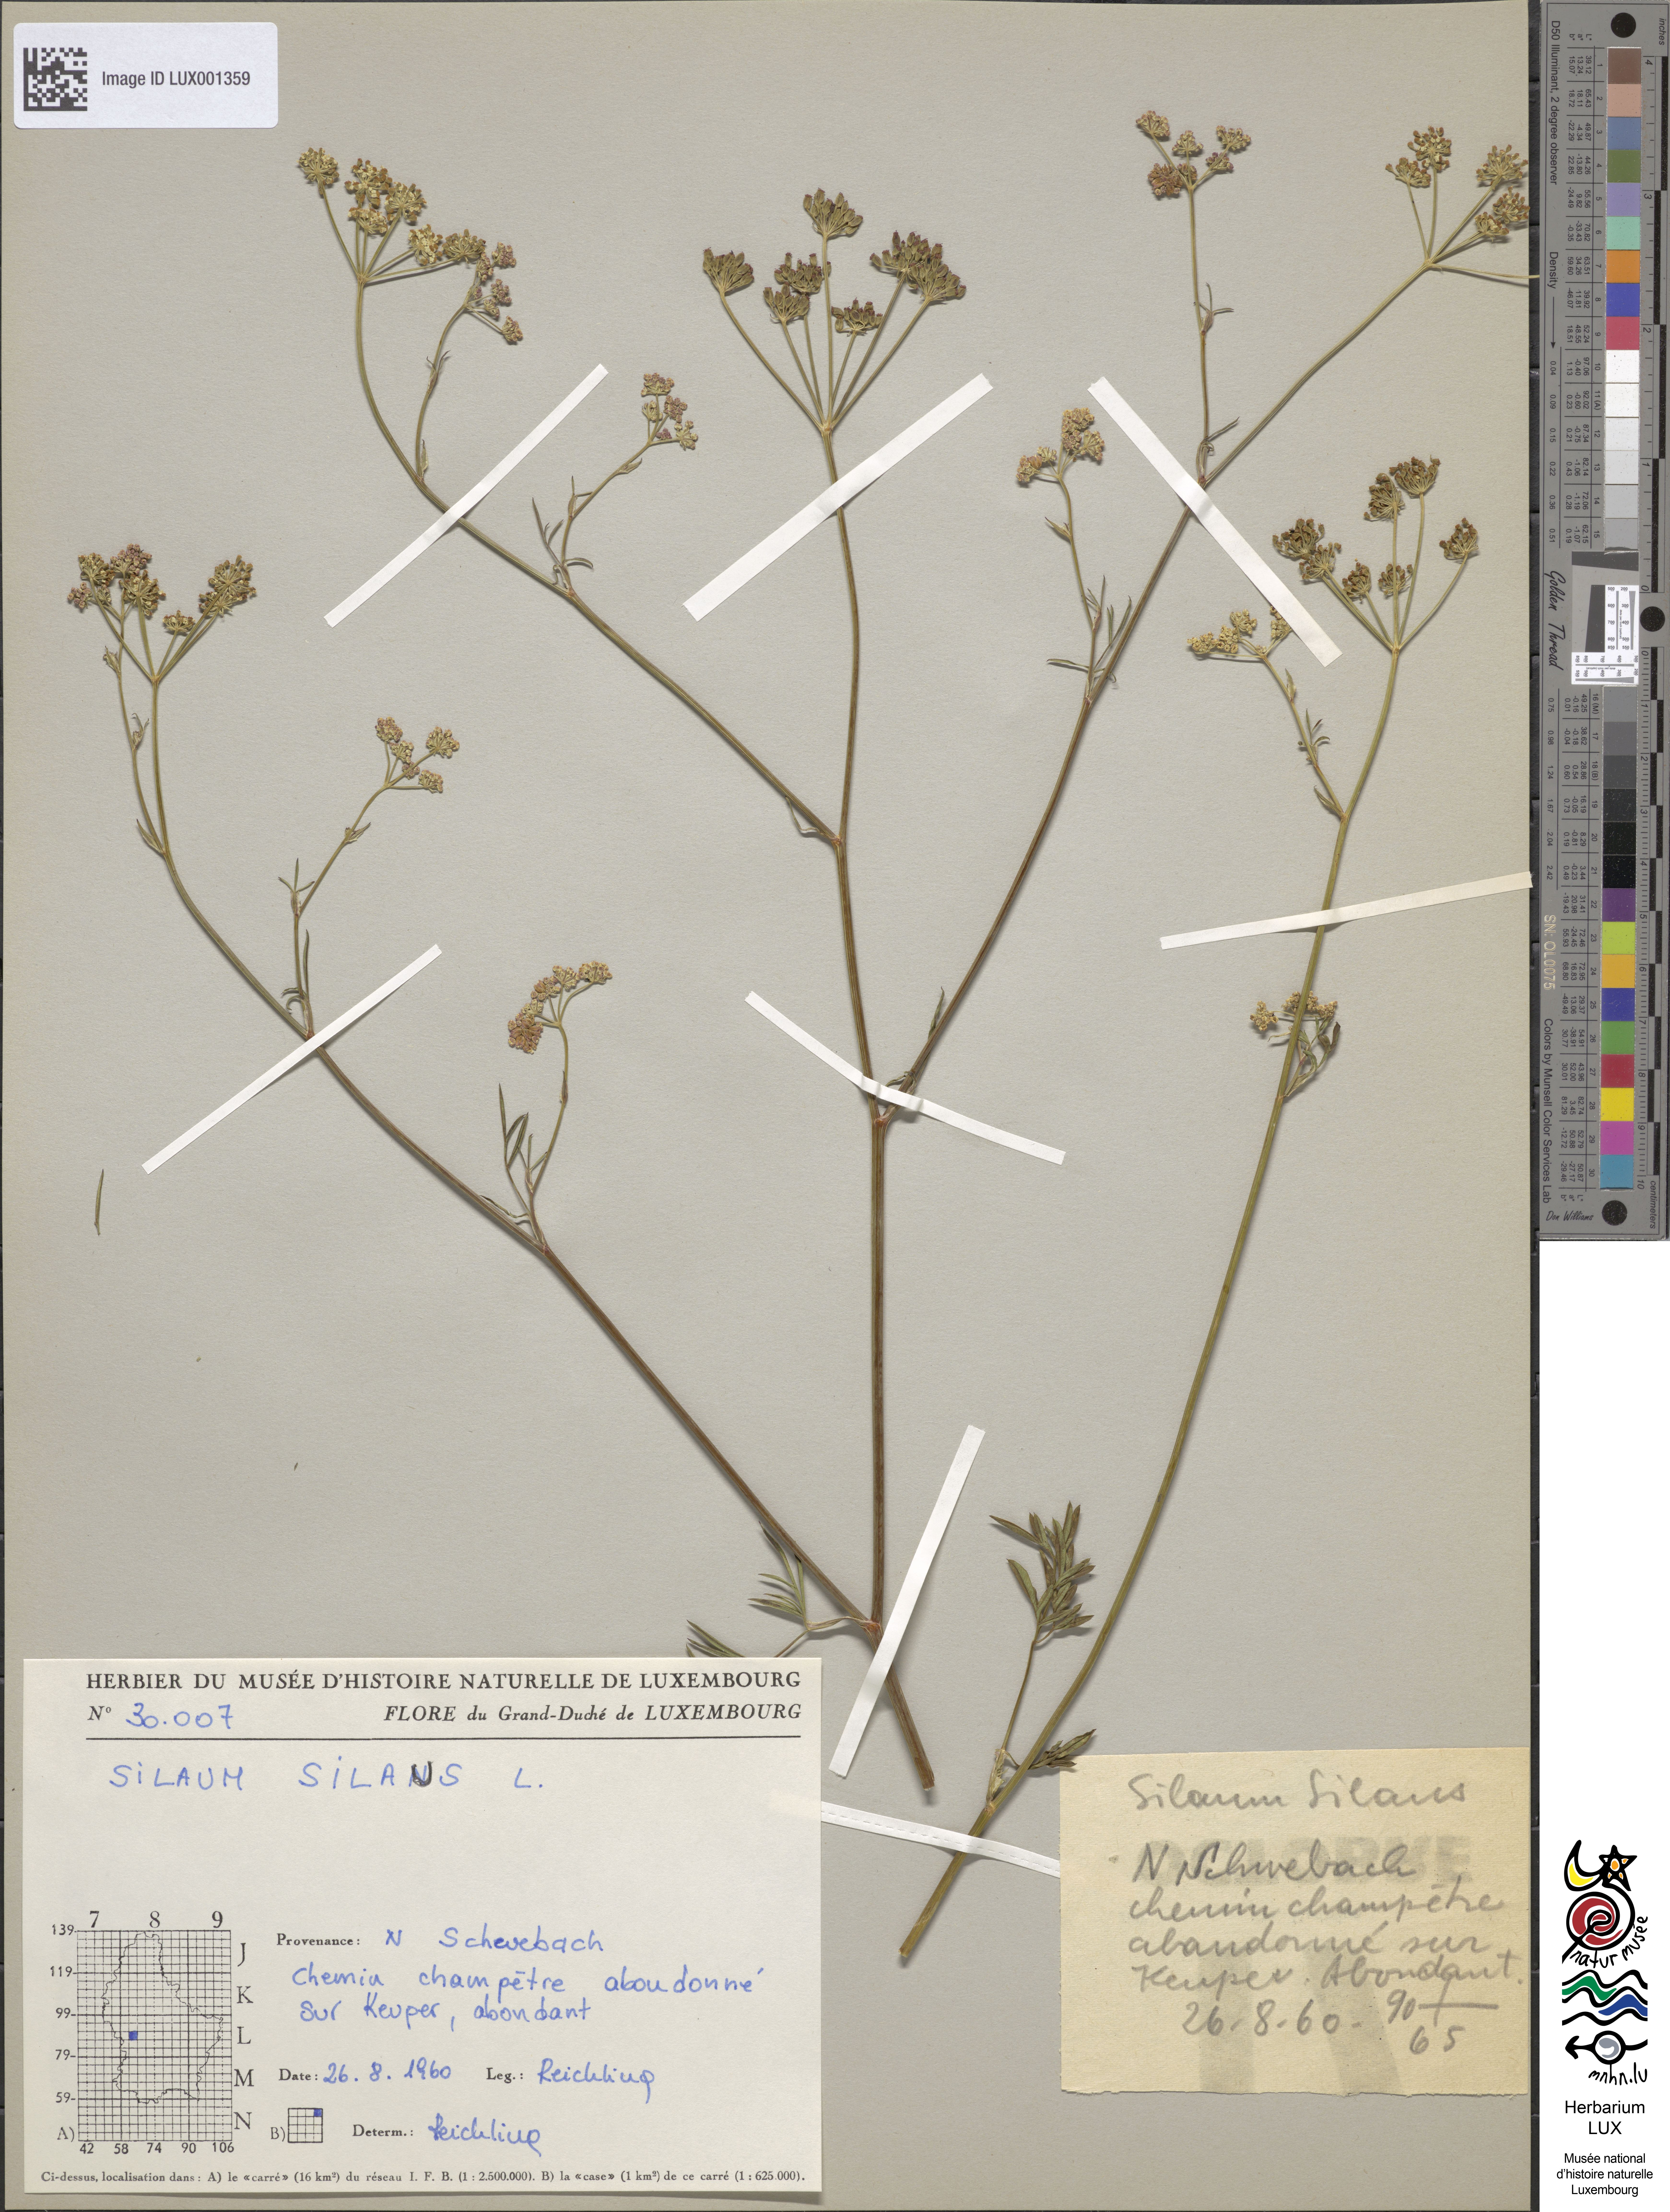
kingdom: Plantae
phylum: Tracheophyta
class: Magnoliopsida
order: Apiales
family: Apiaceae
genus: Silaum
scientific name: Silaum silaus
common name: Pepper-saxifrage
